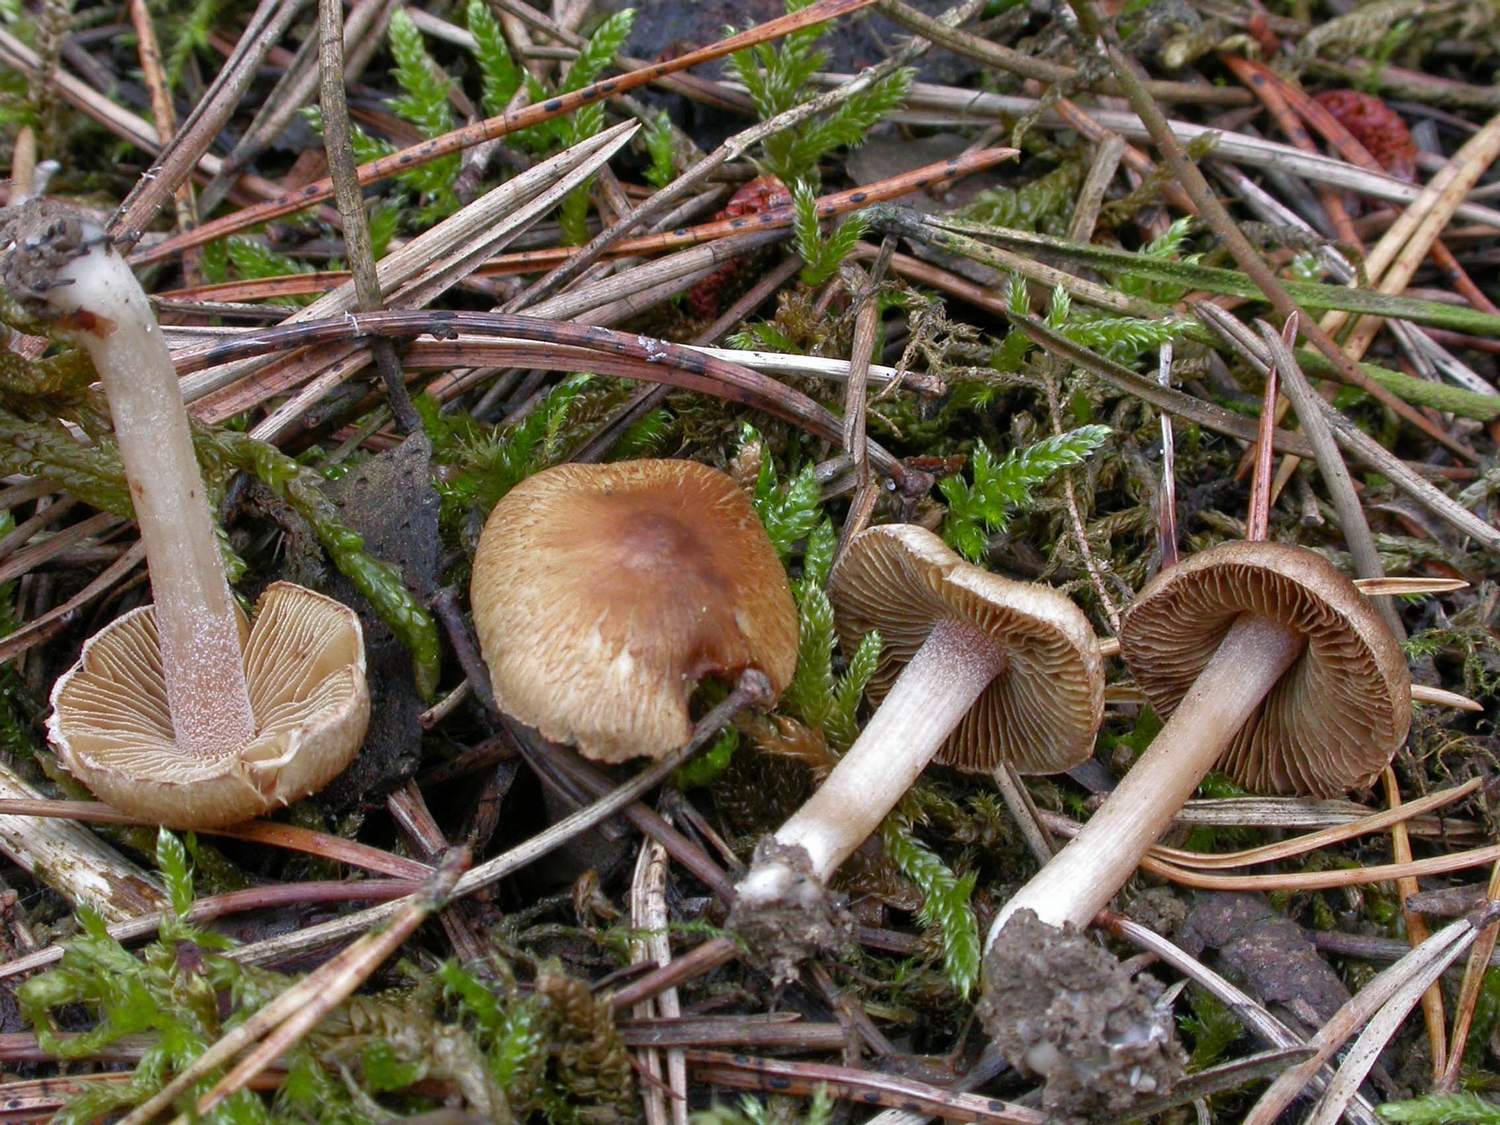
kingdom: Fungi
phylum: Basidiomycota
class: Agaricomycetes
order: Agaricales
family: Inocybaceae
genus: Inocybe
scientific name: Inocybe ochroalba
